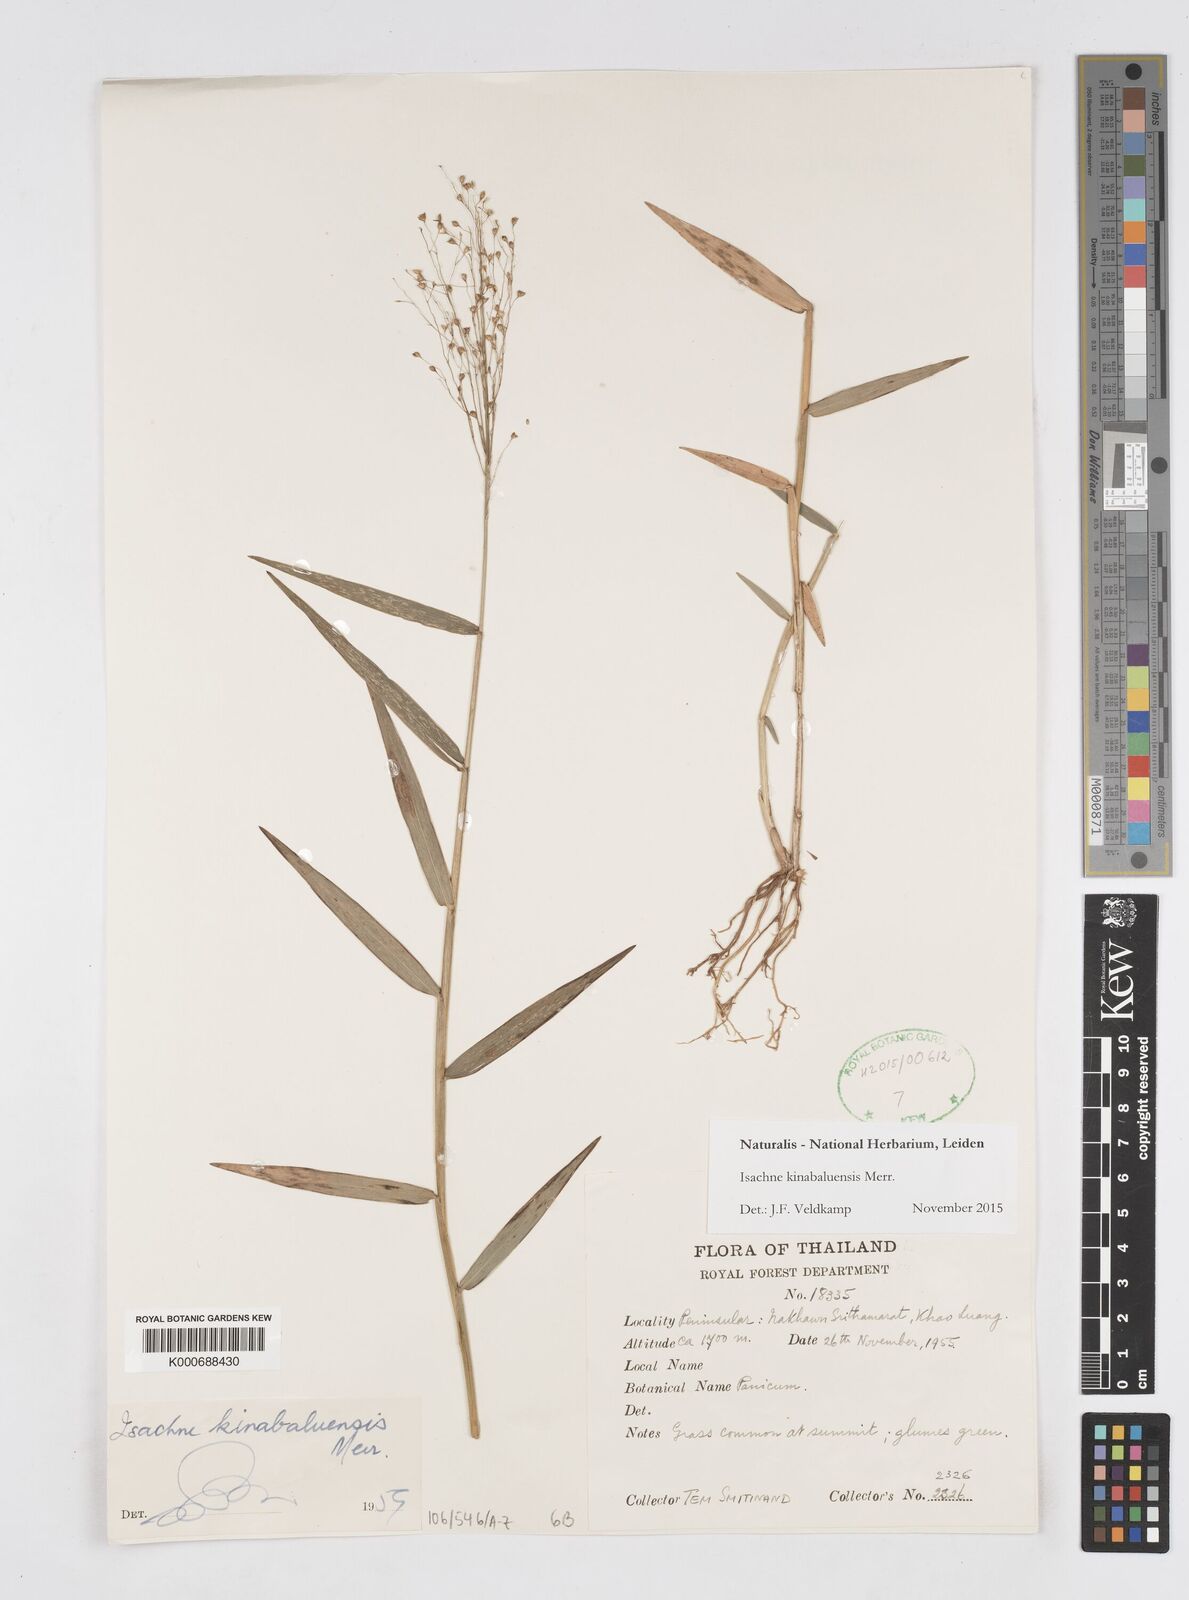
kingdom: Plantae
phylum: Tracheophyta
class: Liliopsida
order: Poales
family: Poaceae
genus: Isachne
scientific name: Isachne kinabaluensis
